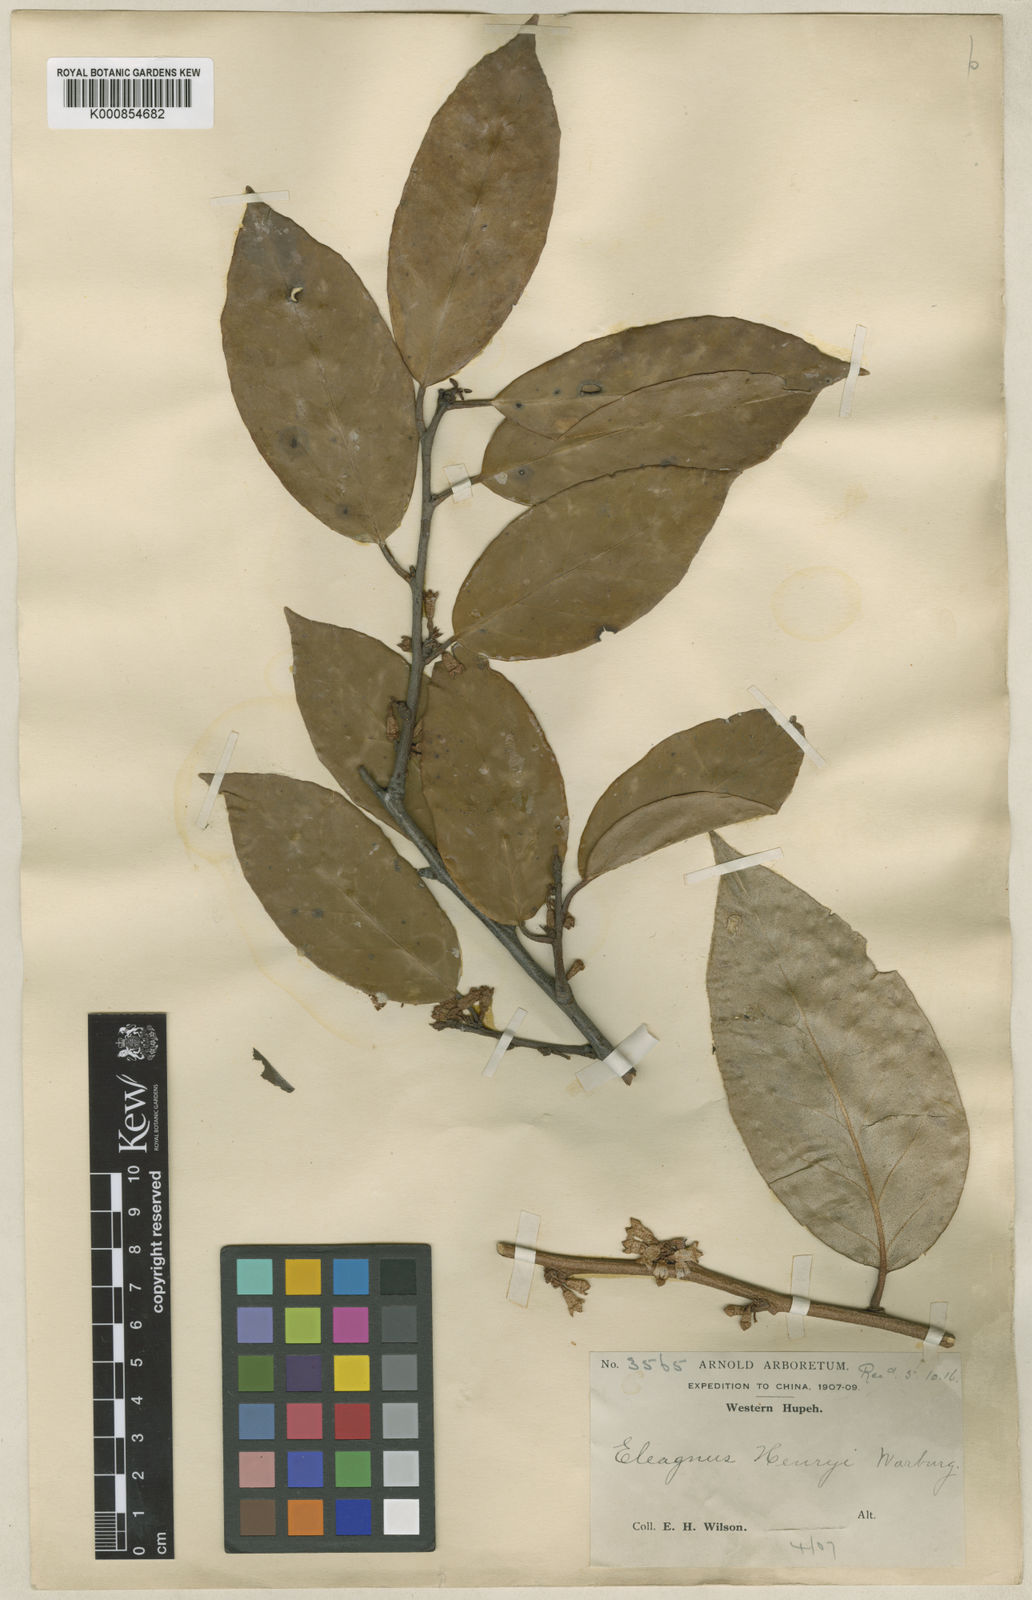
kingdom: Plantae
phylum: Tracheophyta
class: Magnoliopsida
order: Rosales
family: Elaeagnaceae
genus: Elaeagnus
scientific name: Elaeagnus difficilis
